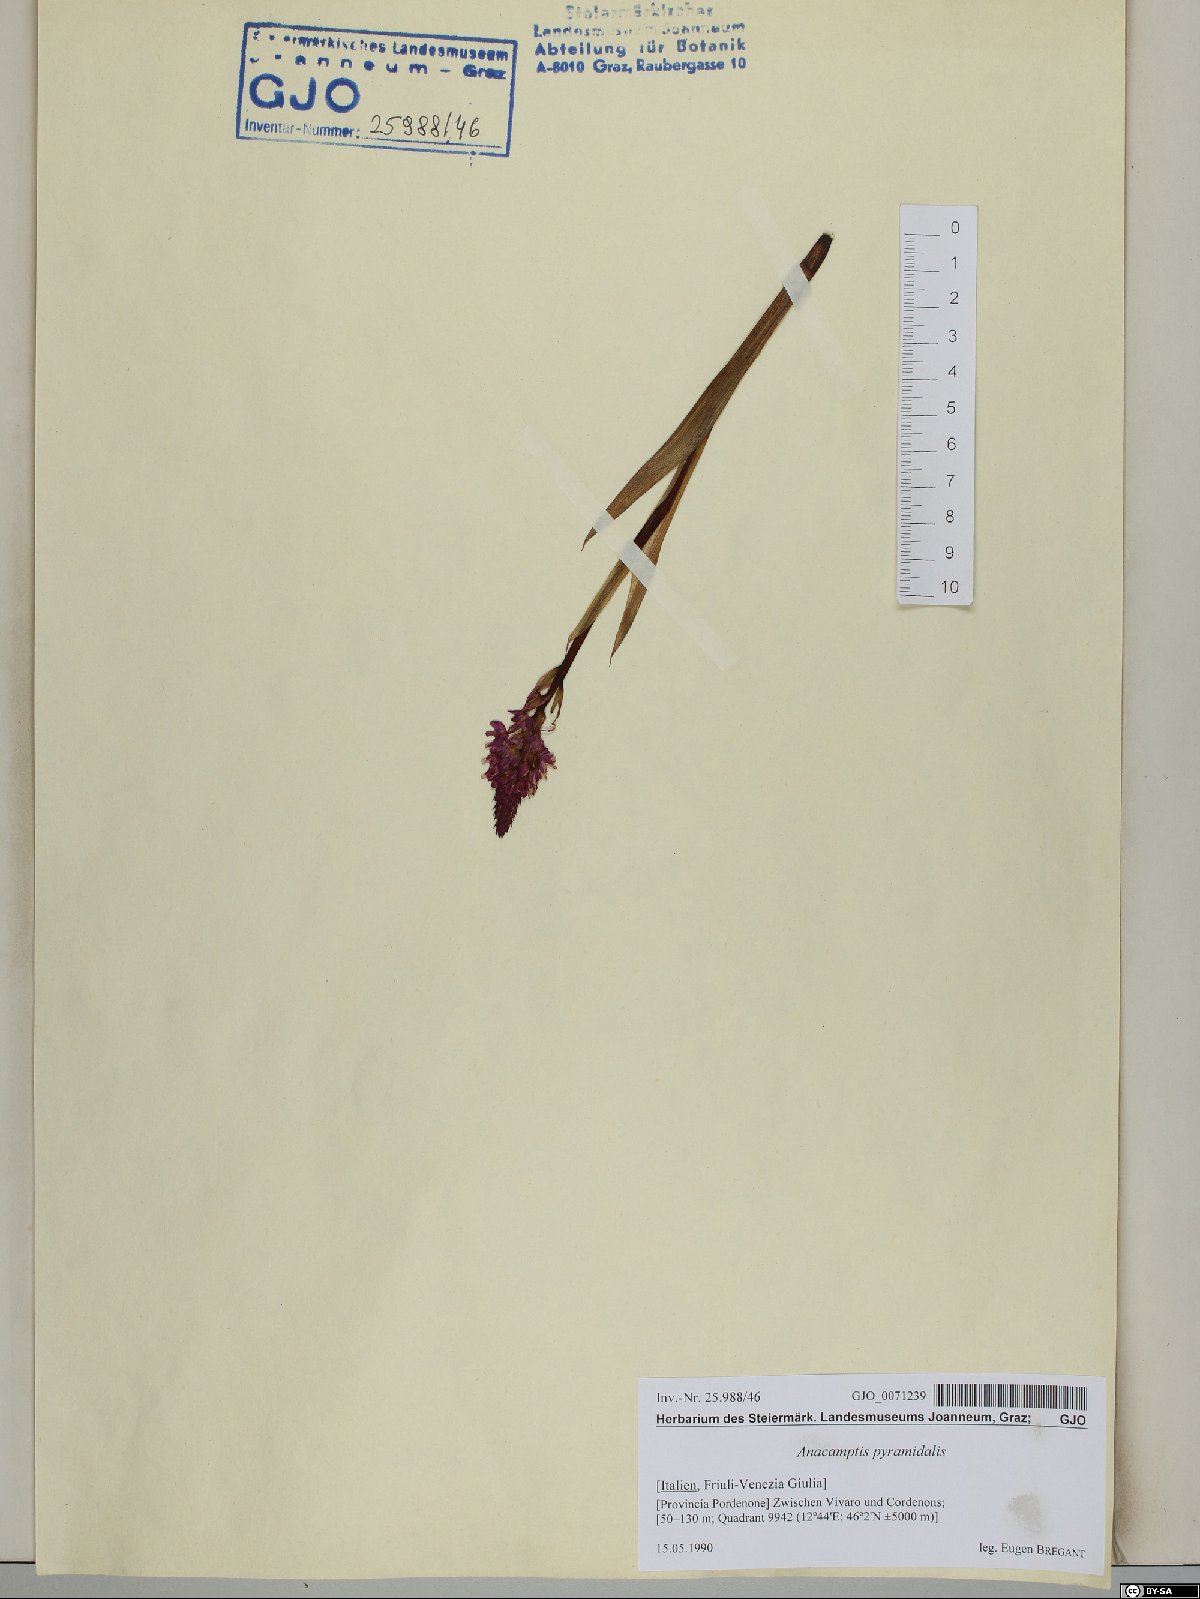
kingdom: Plantae
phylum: Tracheophyta
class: Liliopsida
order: Asparagales
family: Orchidaceae
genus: Anacamptis
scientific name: Anacamptis pyramidalis
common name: Pyramidal orchid
